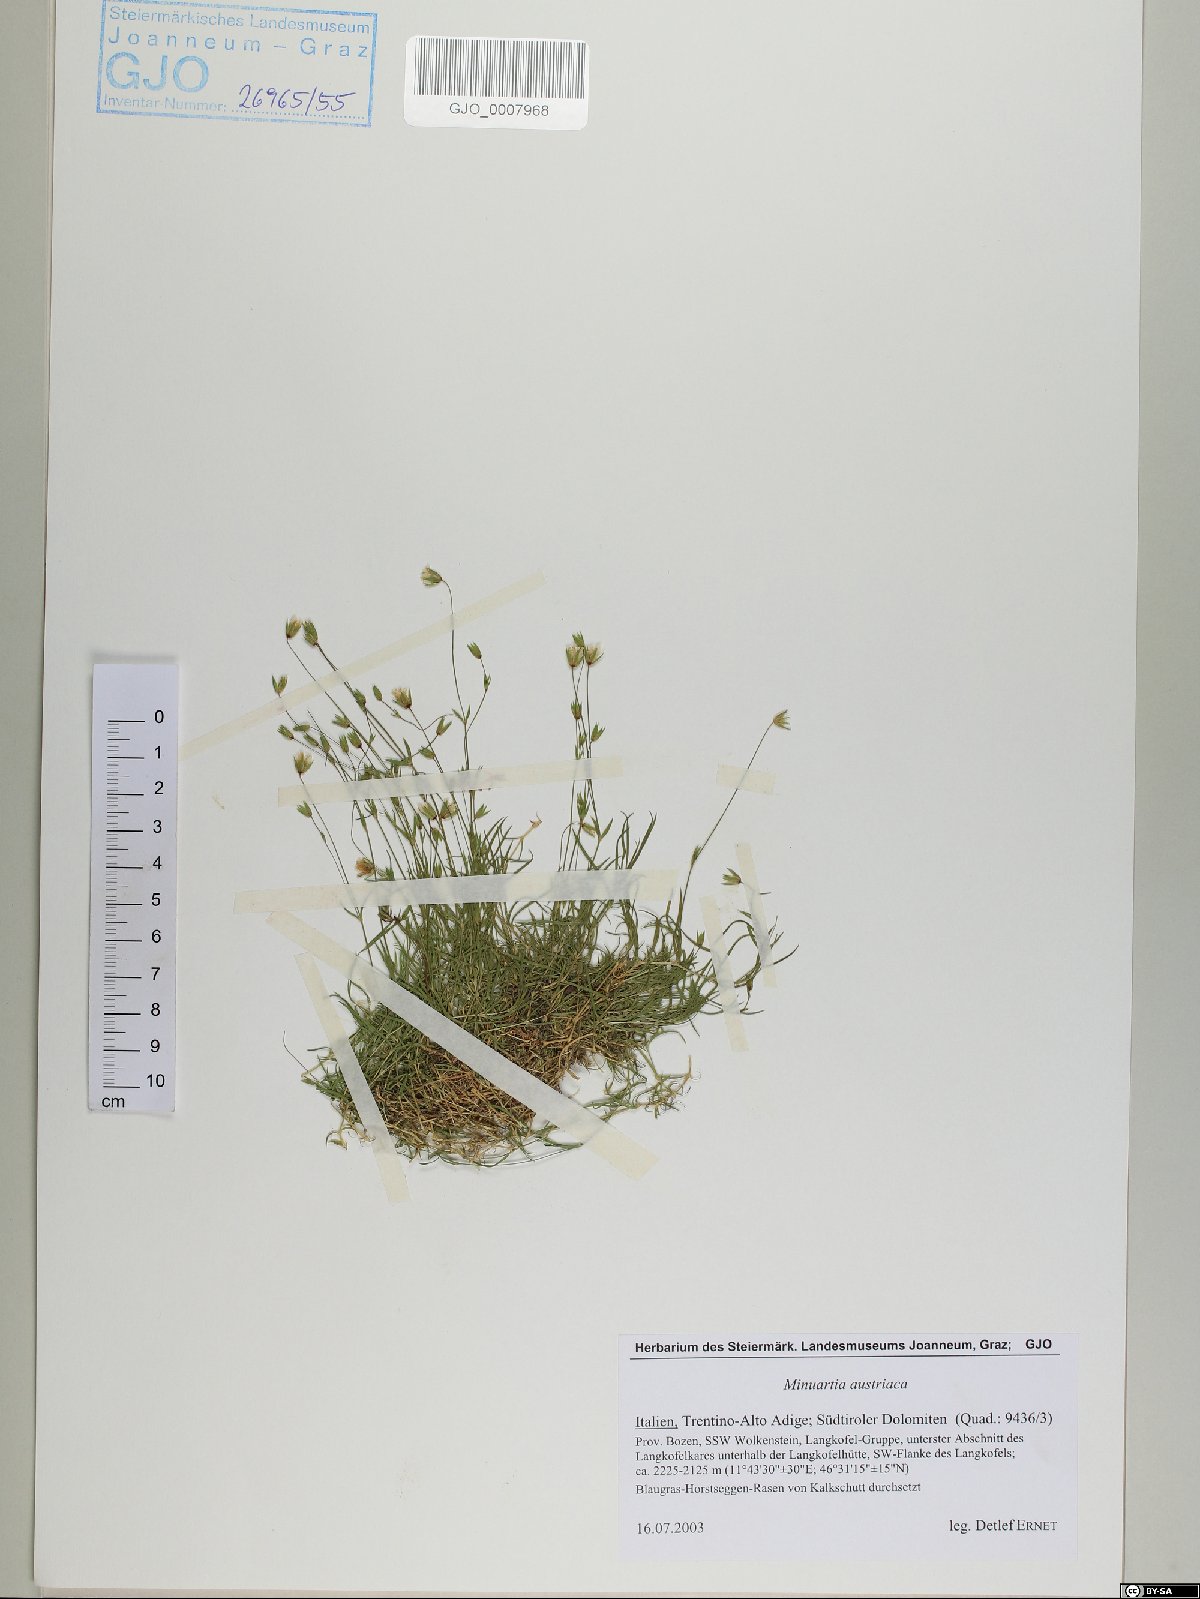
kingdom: Plantae
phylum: Tracheophyta
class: Magnoliopsida
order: Caryophyllales
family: Caryophyllaceae
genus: Sabulina
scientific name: Sabulina austriaca
